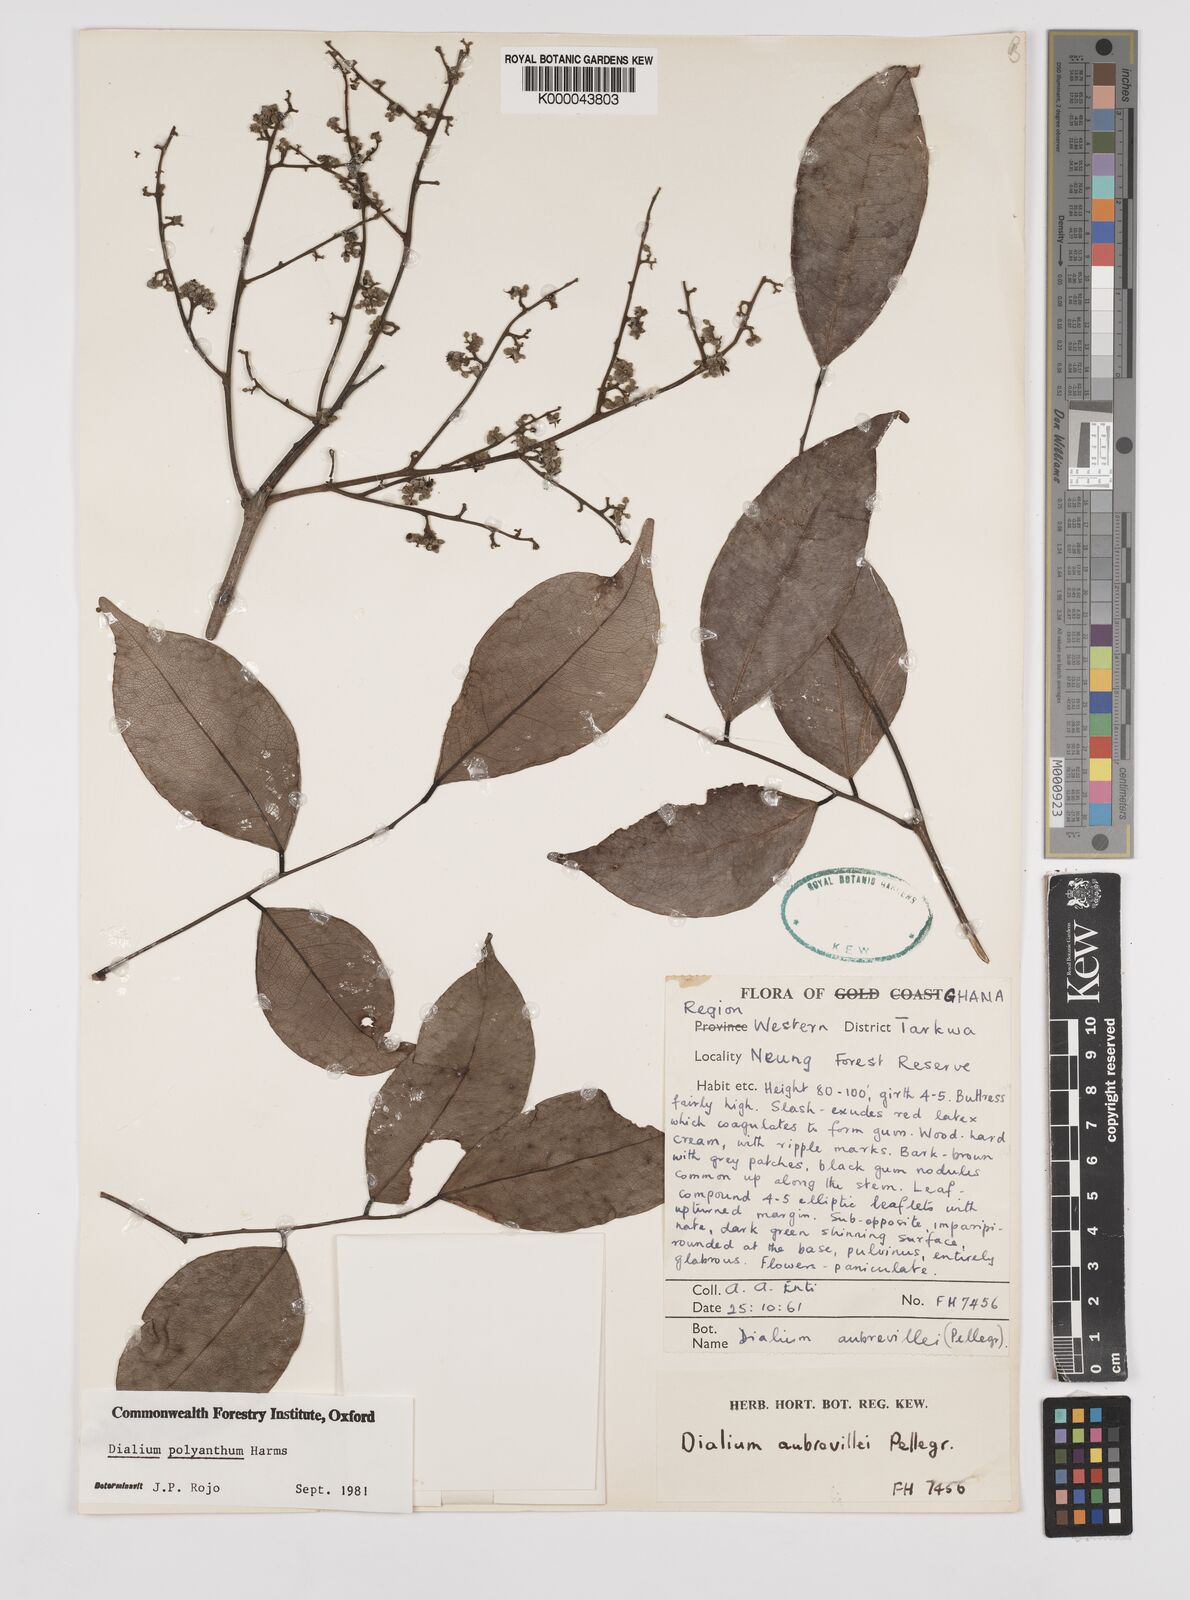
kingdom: Plantae
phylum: Tracheophyta
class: Magnoliopsida
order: Fabales
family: Fabaceae
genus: Dialium
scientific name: Dialium polyanthum
